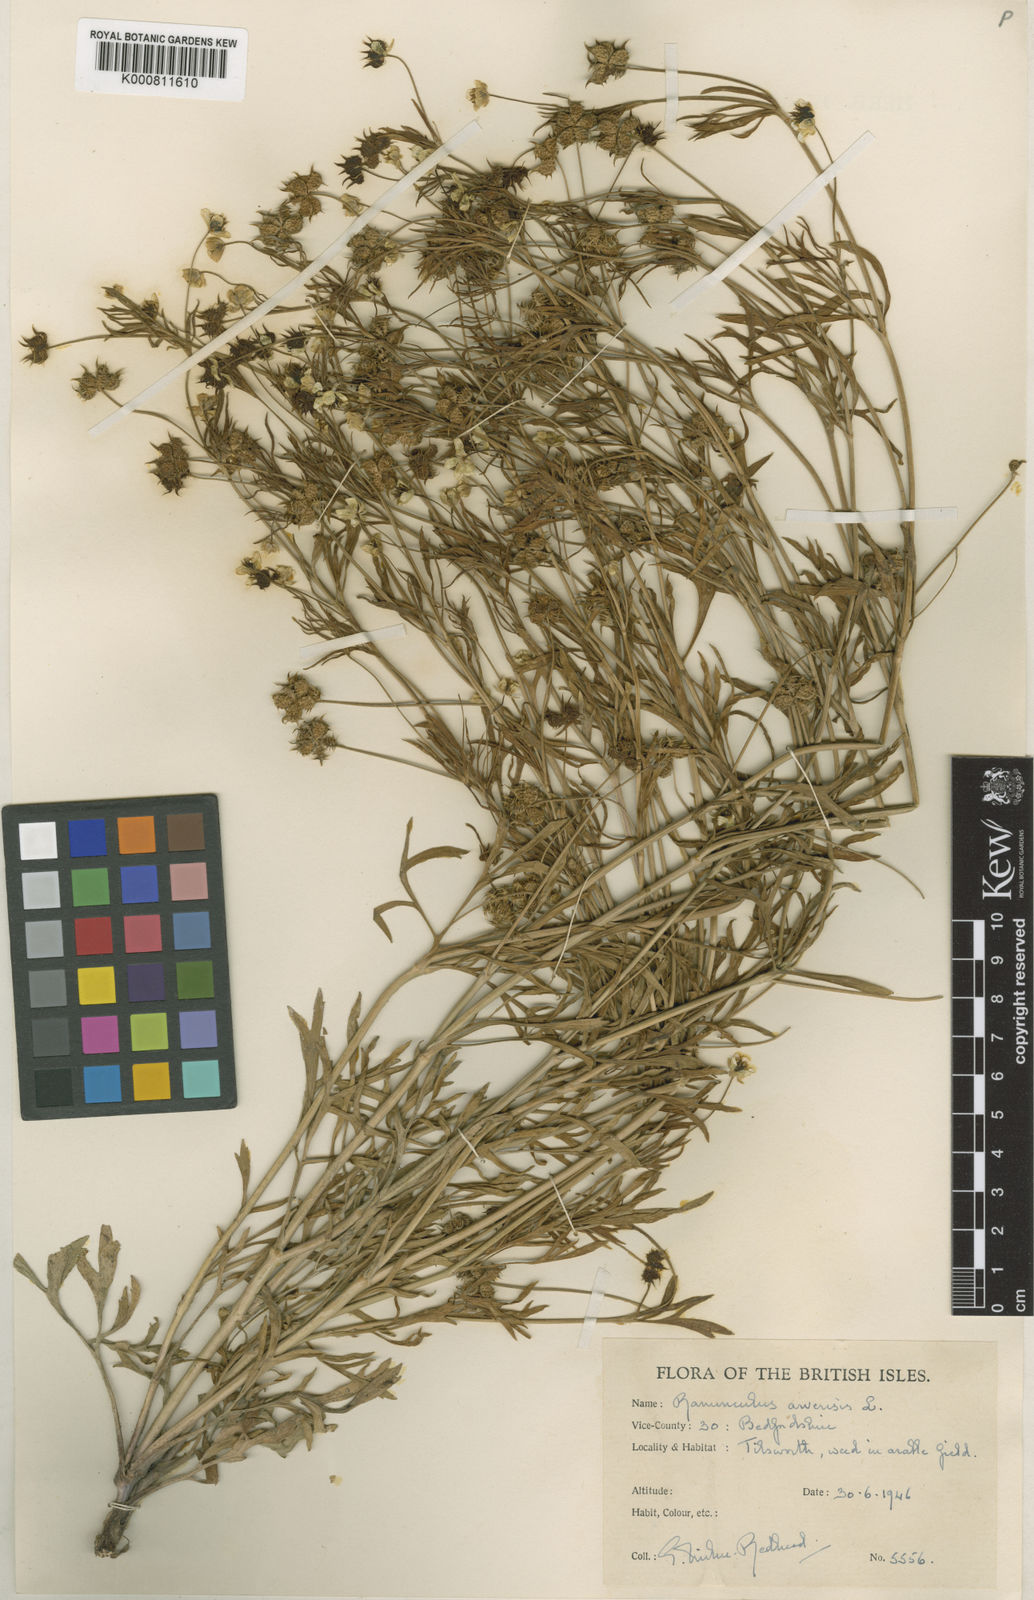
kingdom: Plantae
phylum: Tracheophyta
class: Magnoliopsida
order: Ranunculales
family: Ranunculaceae
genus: Ranunculus
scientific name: Ranunculus arvensis
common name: Corn buttercup
